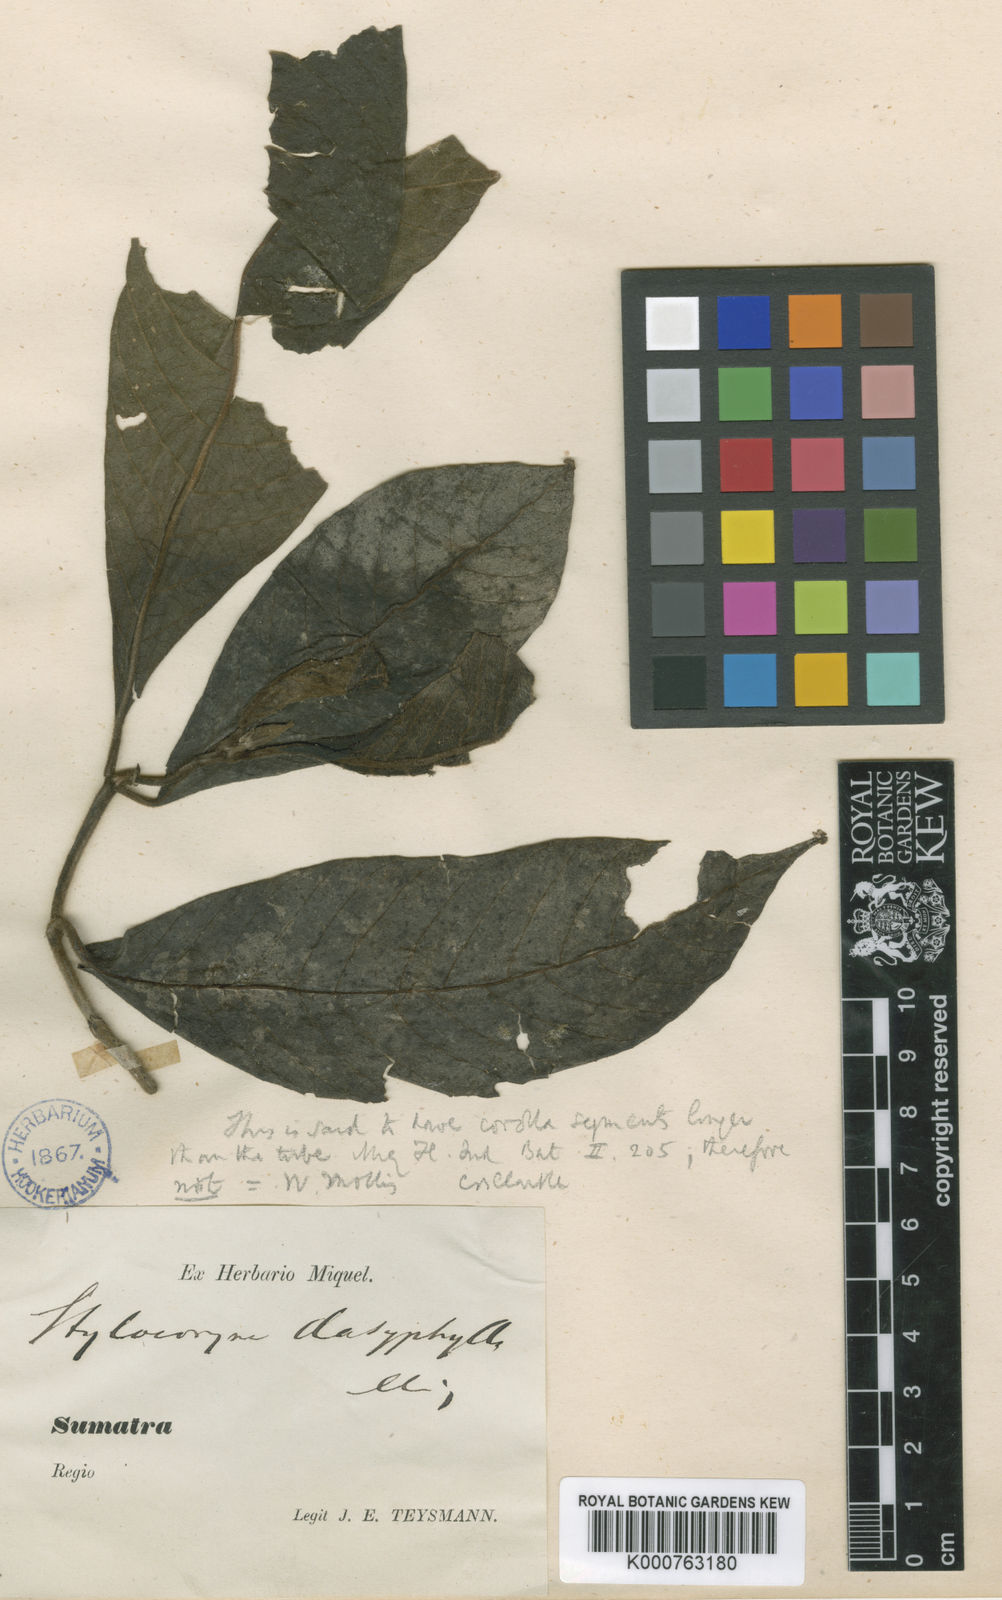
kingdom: Plantae
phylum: Tracheophyta
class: Magnoliopsida
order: Gentianales
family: Rubiaceae
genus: Tarenna
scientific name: Tarenna dasyphylla
